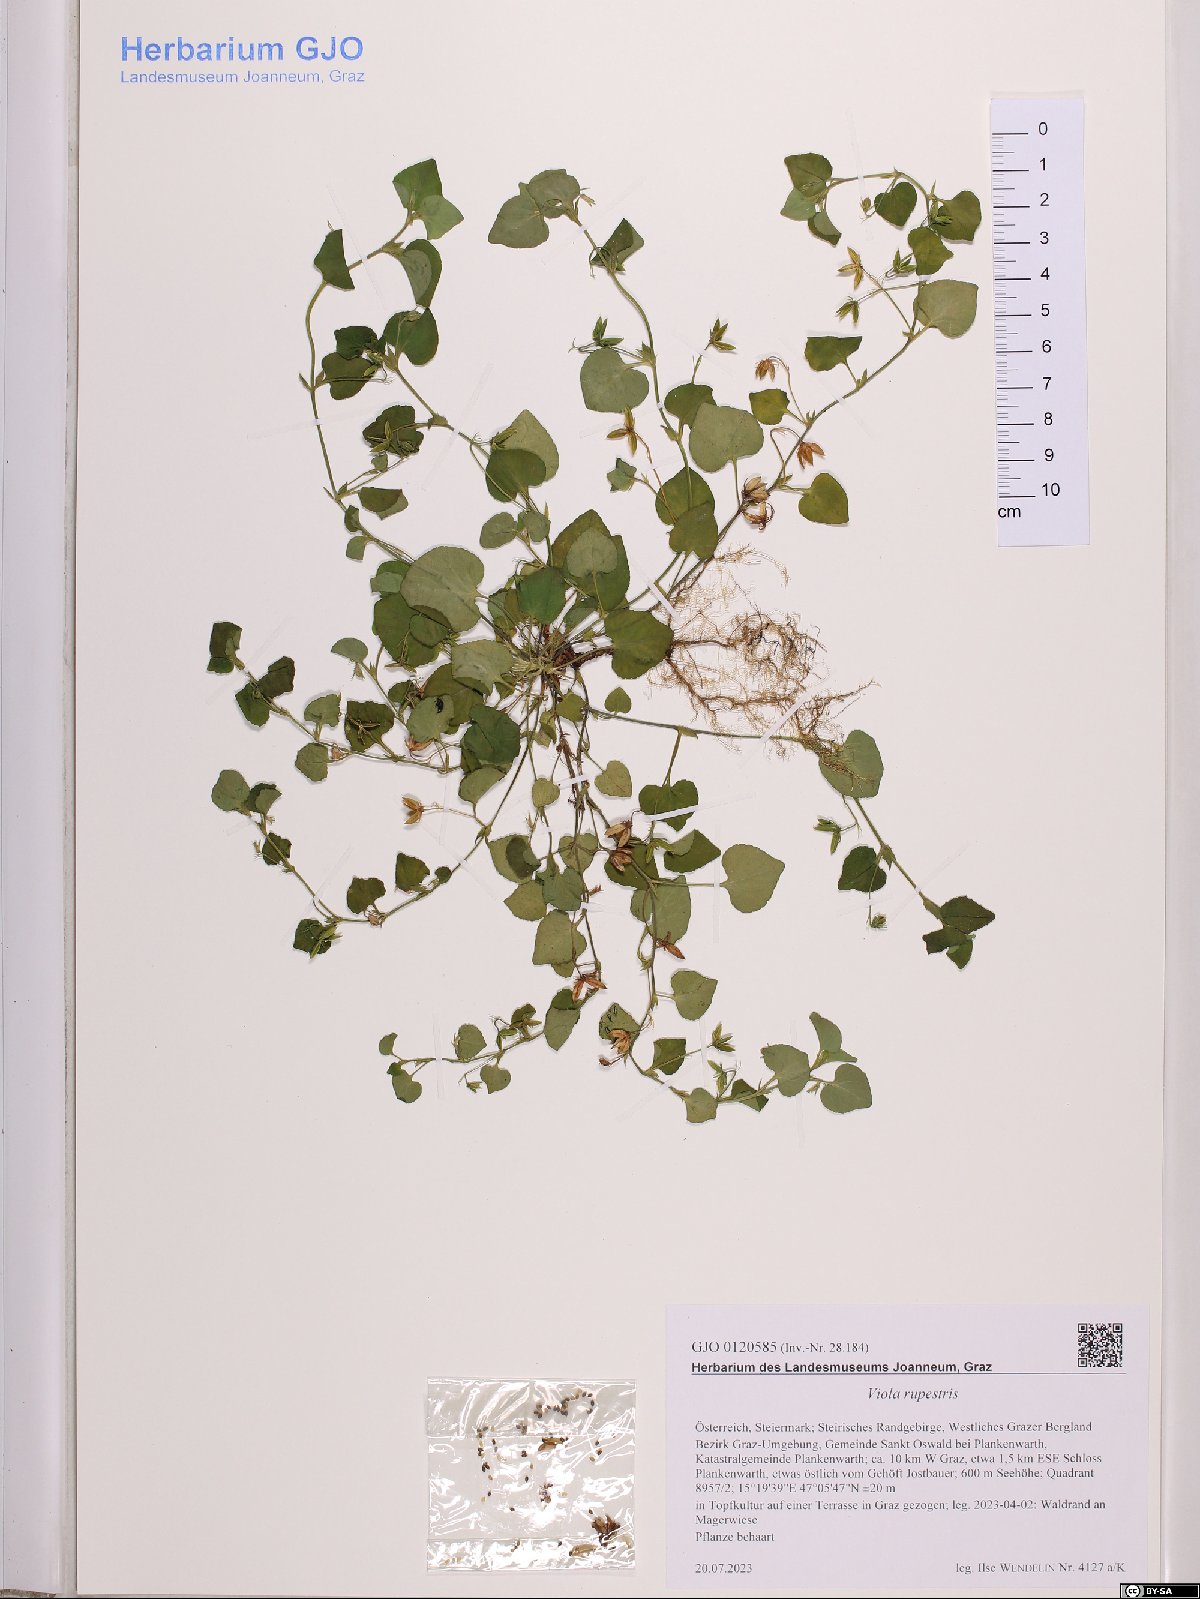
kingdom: Plantae
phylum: Tracheophyta
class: Magnoliopsida
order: Malpighiales
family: Violaceae
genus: Viola
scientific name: Viola rupestris
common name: Teesdale violet
